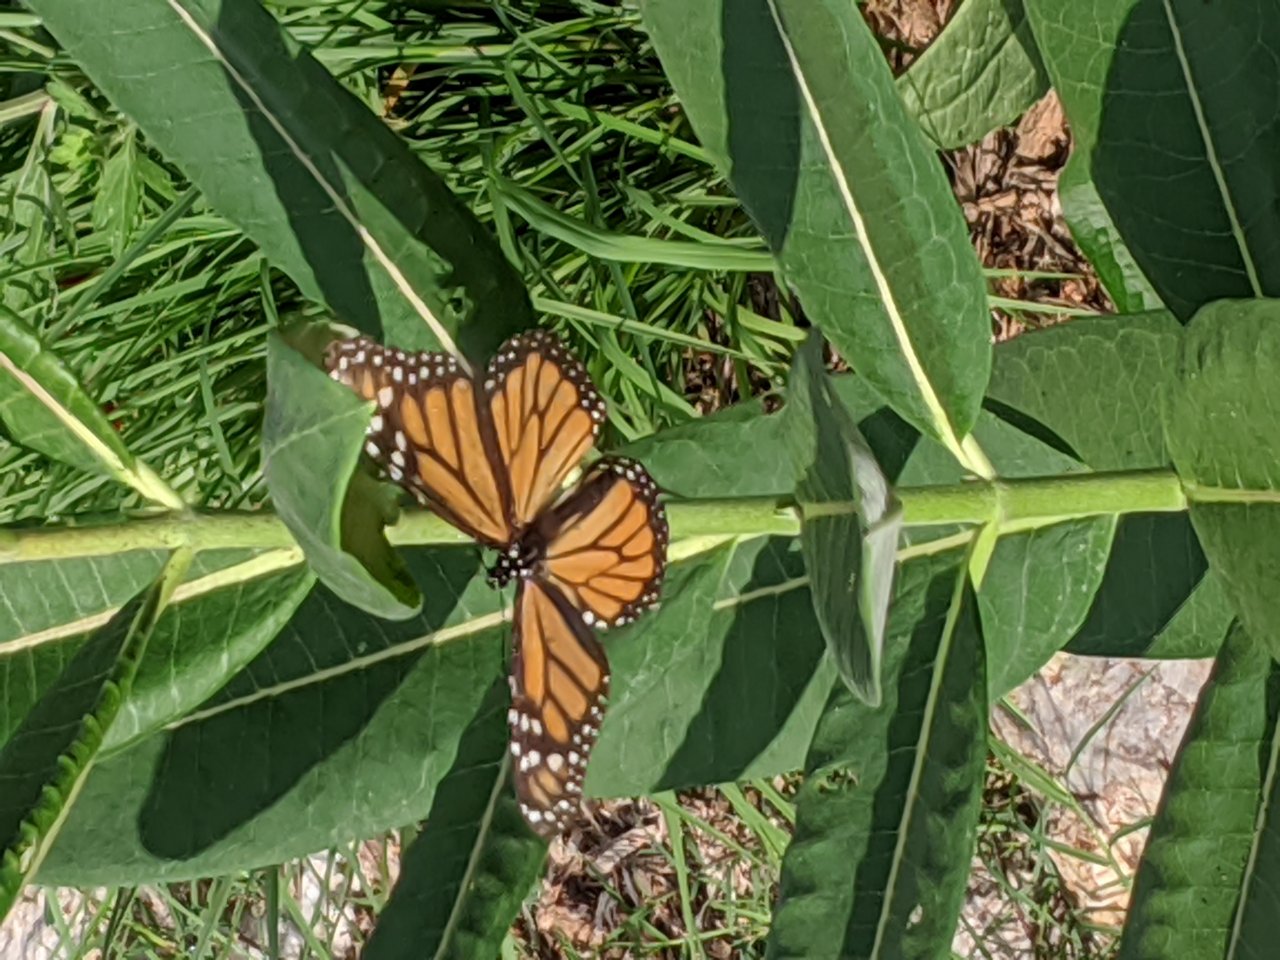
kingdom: Animalia
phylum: Arthropoda
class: Insecta
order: Lepidoptera
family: Nymphalidae
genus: Danaus
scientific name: Danaus plexippus
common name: Monarch
